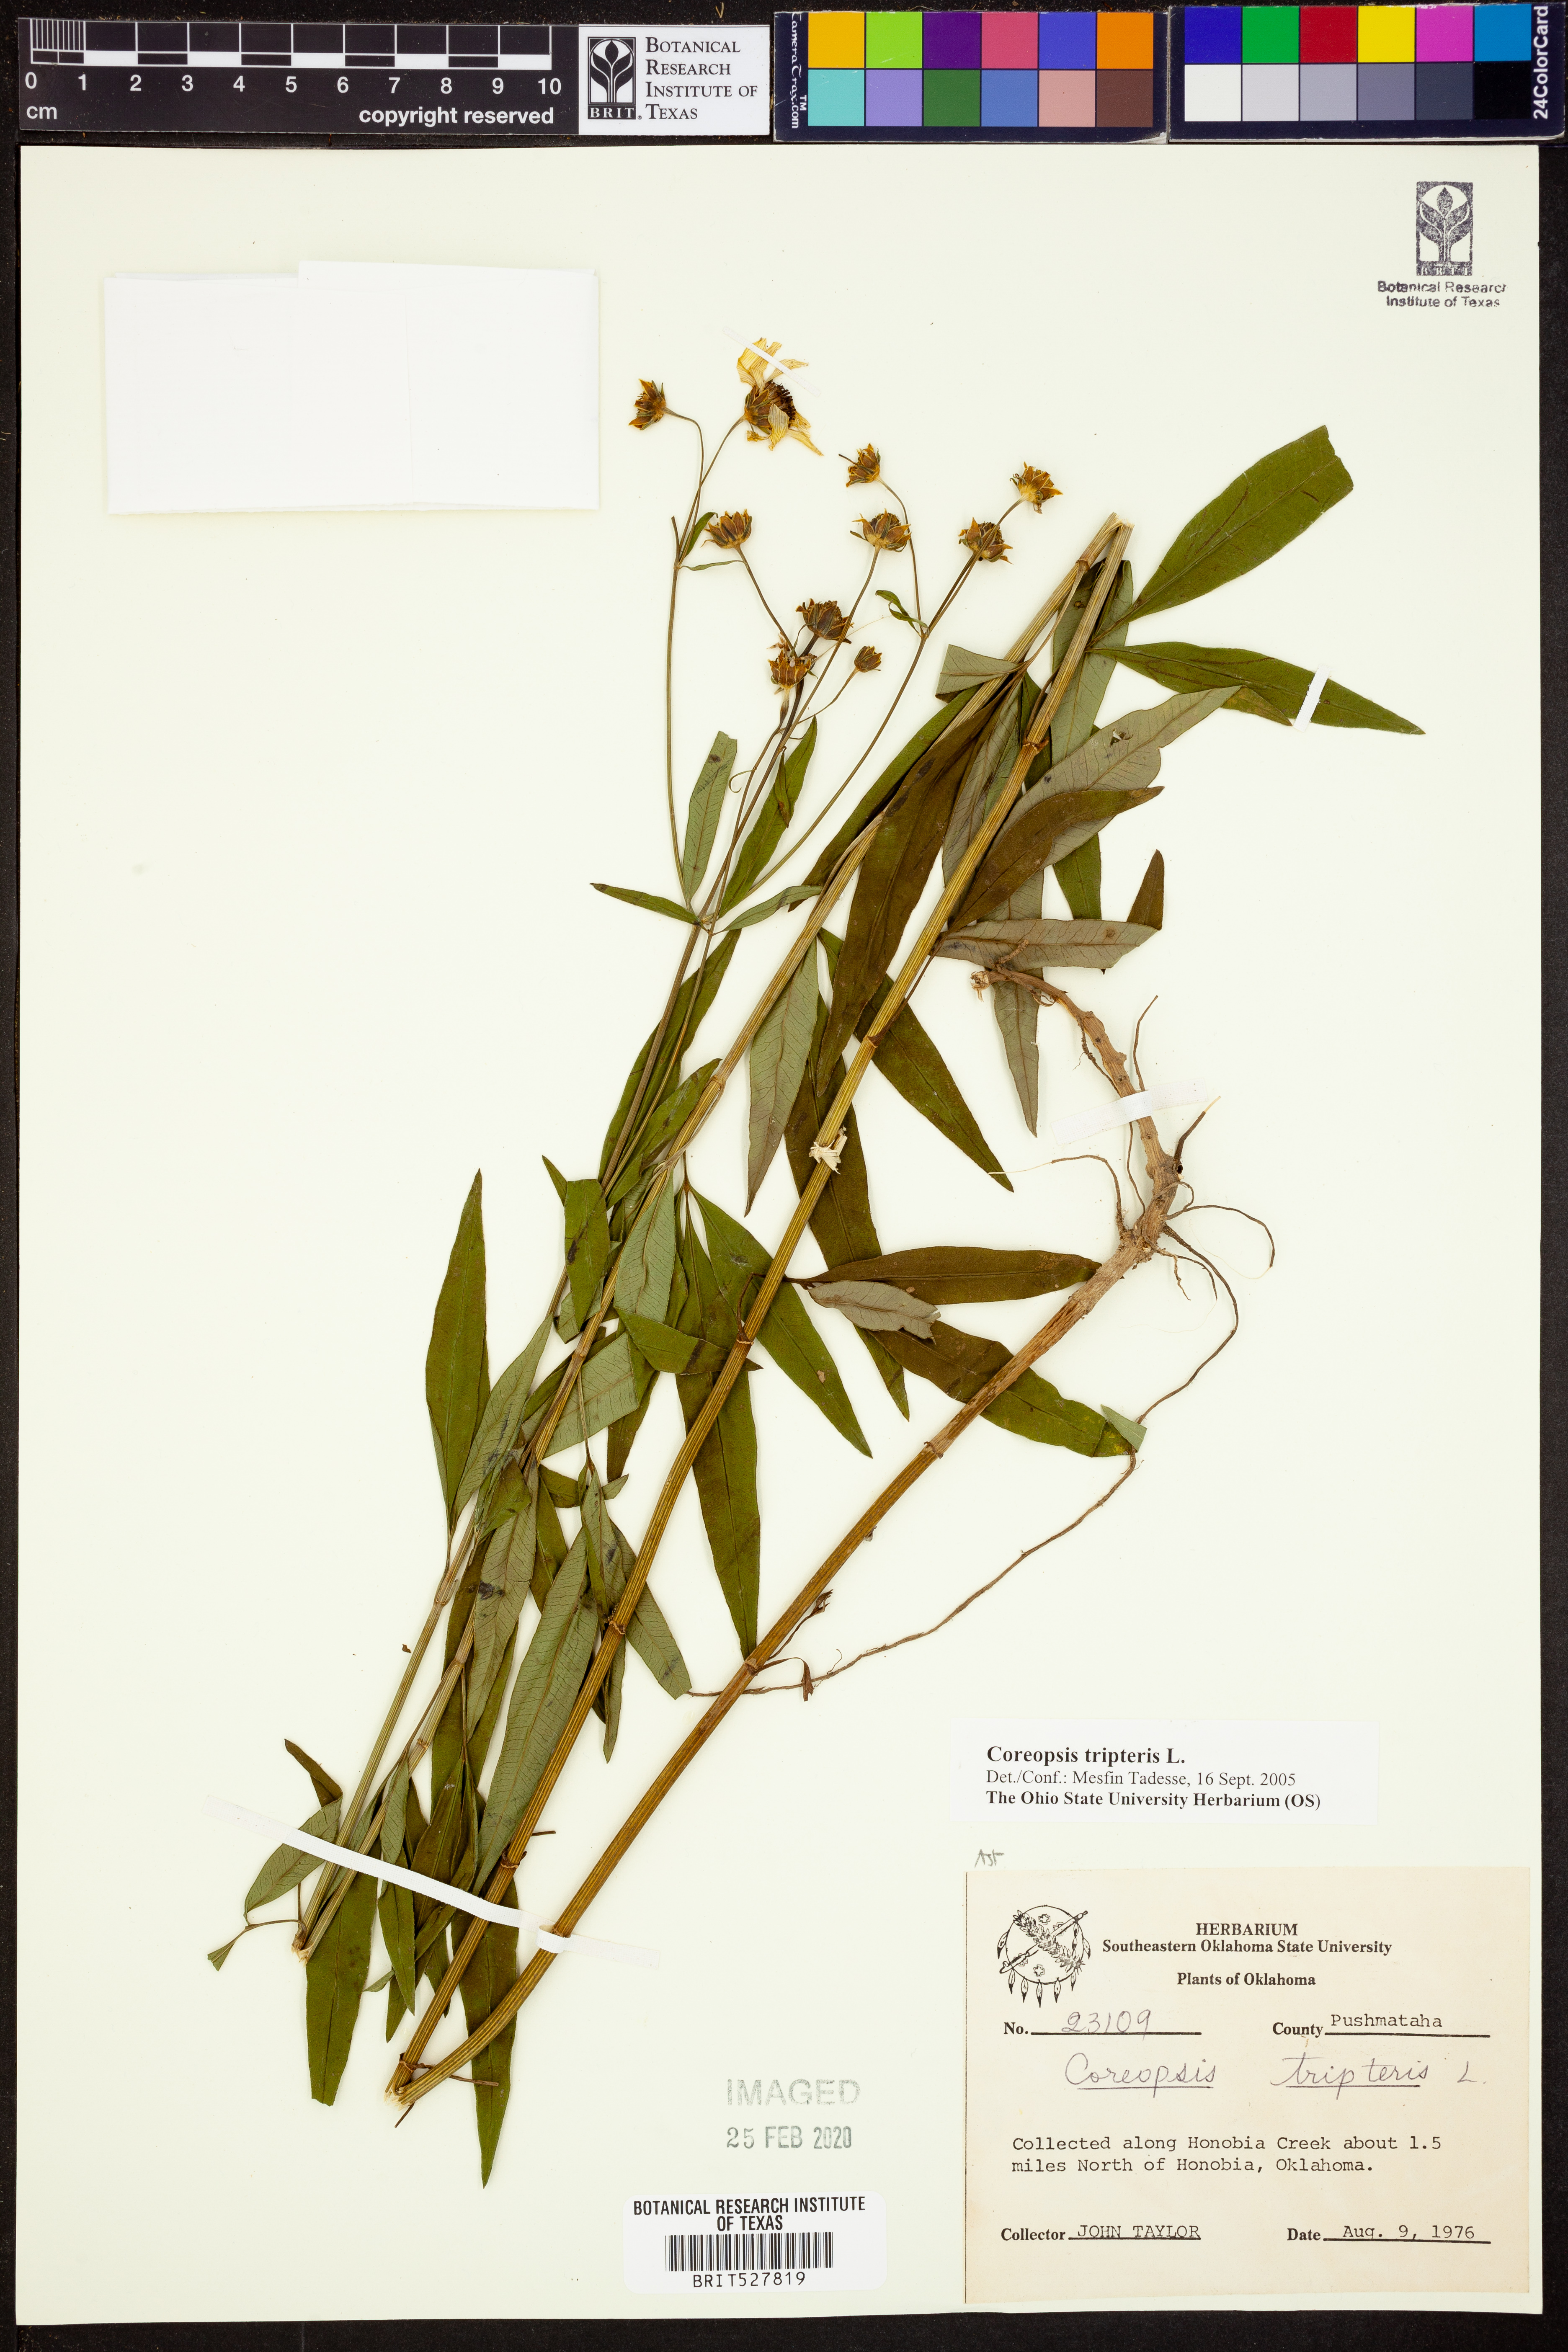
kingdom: Plantae
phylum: Tracheophyta
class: Magnoliopsida
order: Asterales
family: Asteraceae
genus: Coreopsis
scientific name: Coreopsis tripteris
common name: Tall coreopsis
